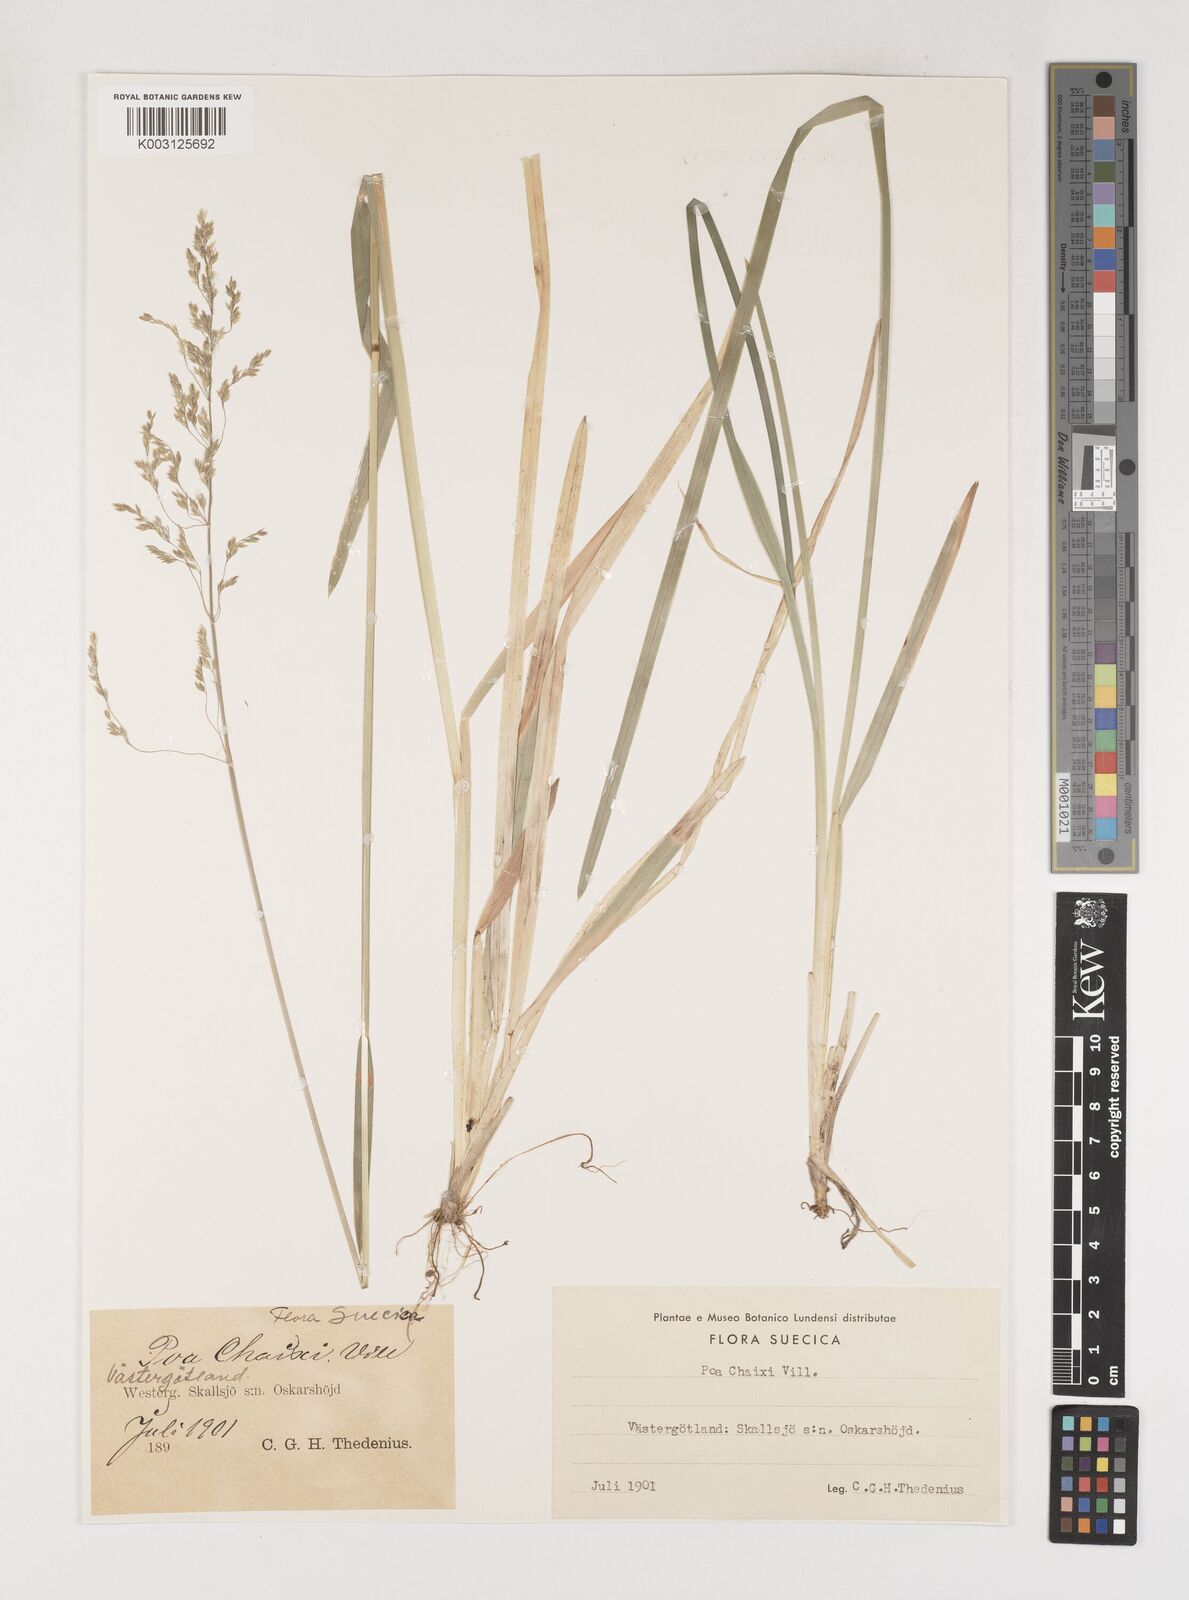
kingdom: Plantae
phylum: Tracheophyta
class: Liliopsida
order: Poales
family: Poaceae
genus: Poa
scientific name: Poa chaixii
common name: Broad-leaved meadow-grass
